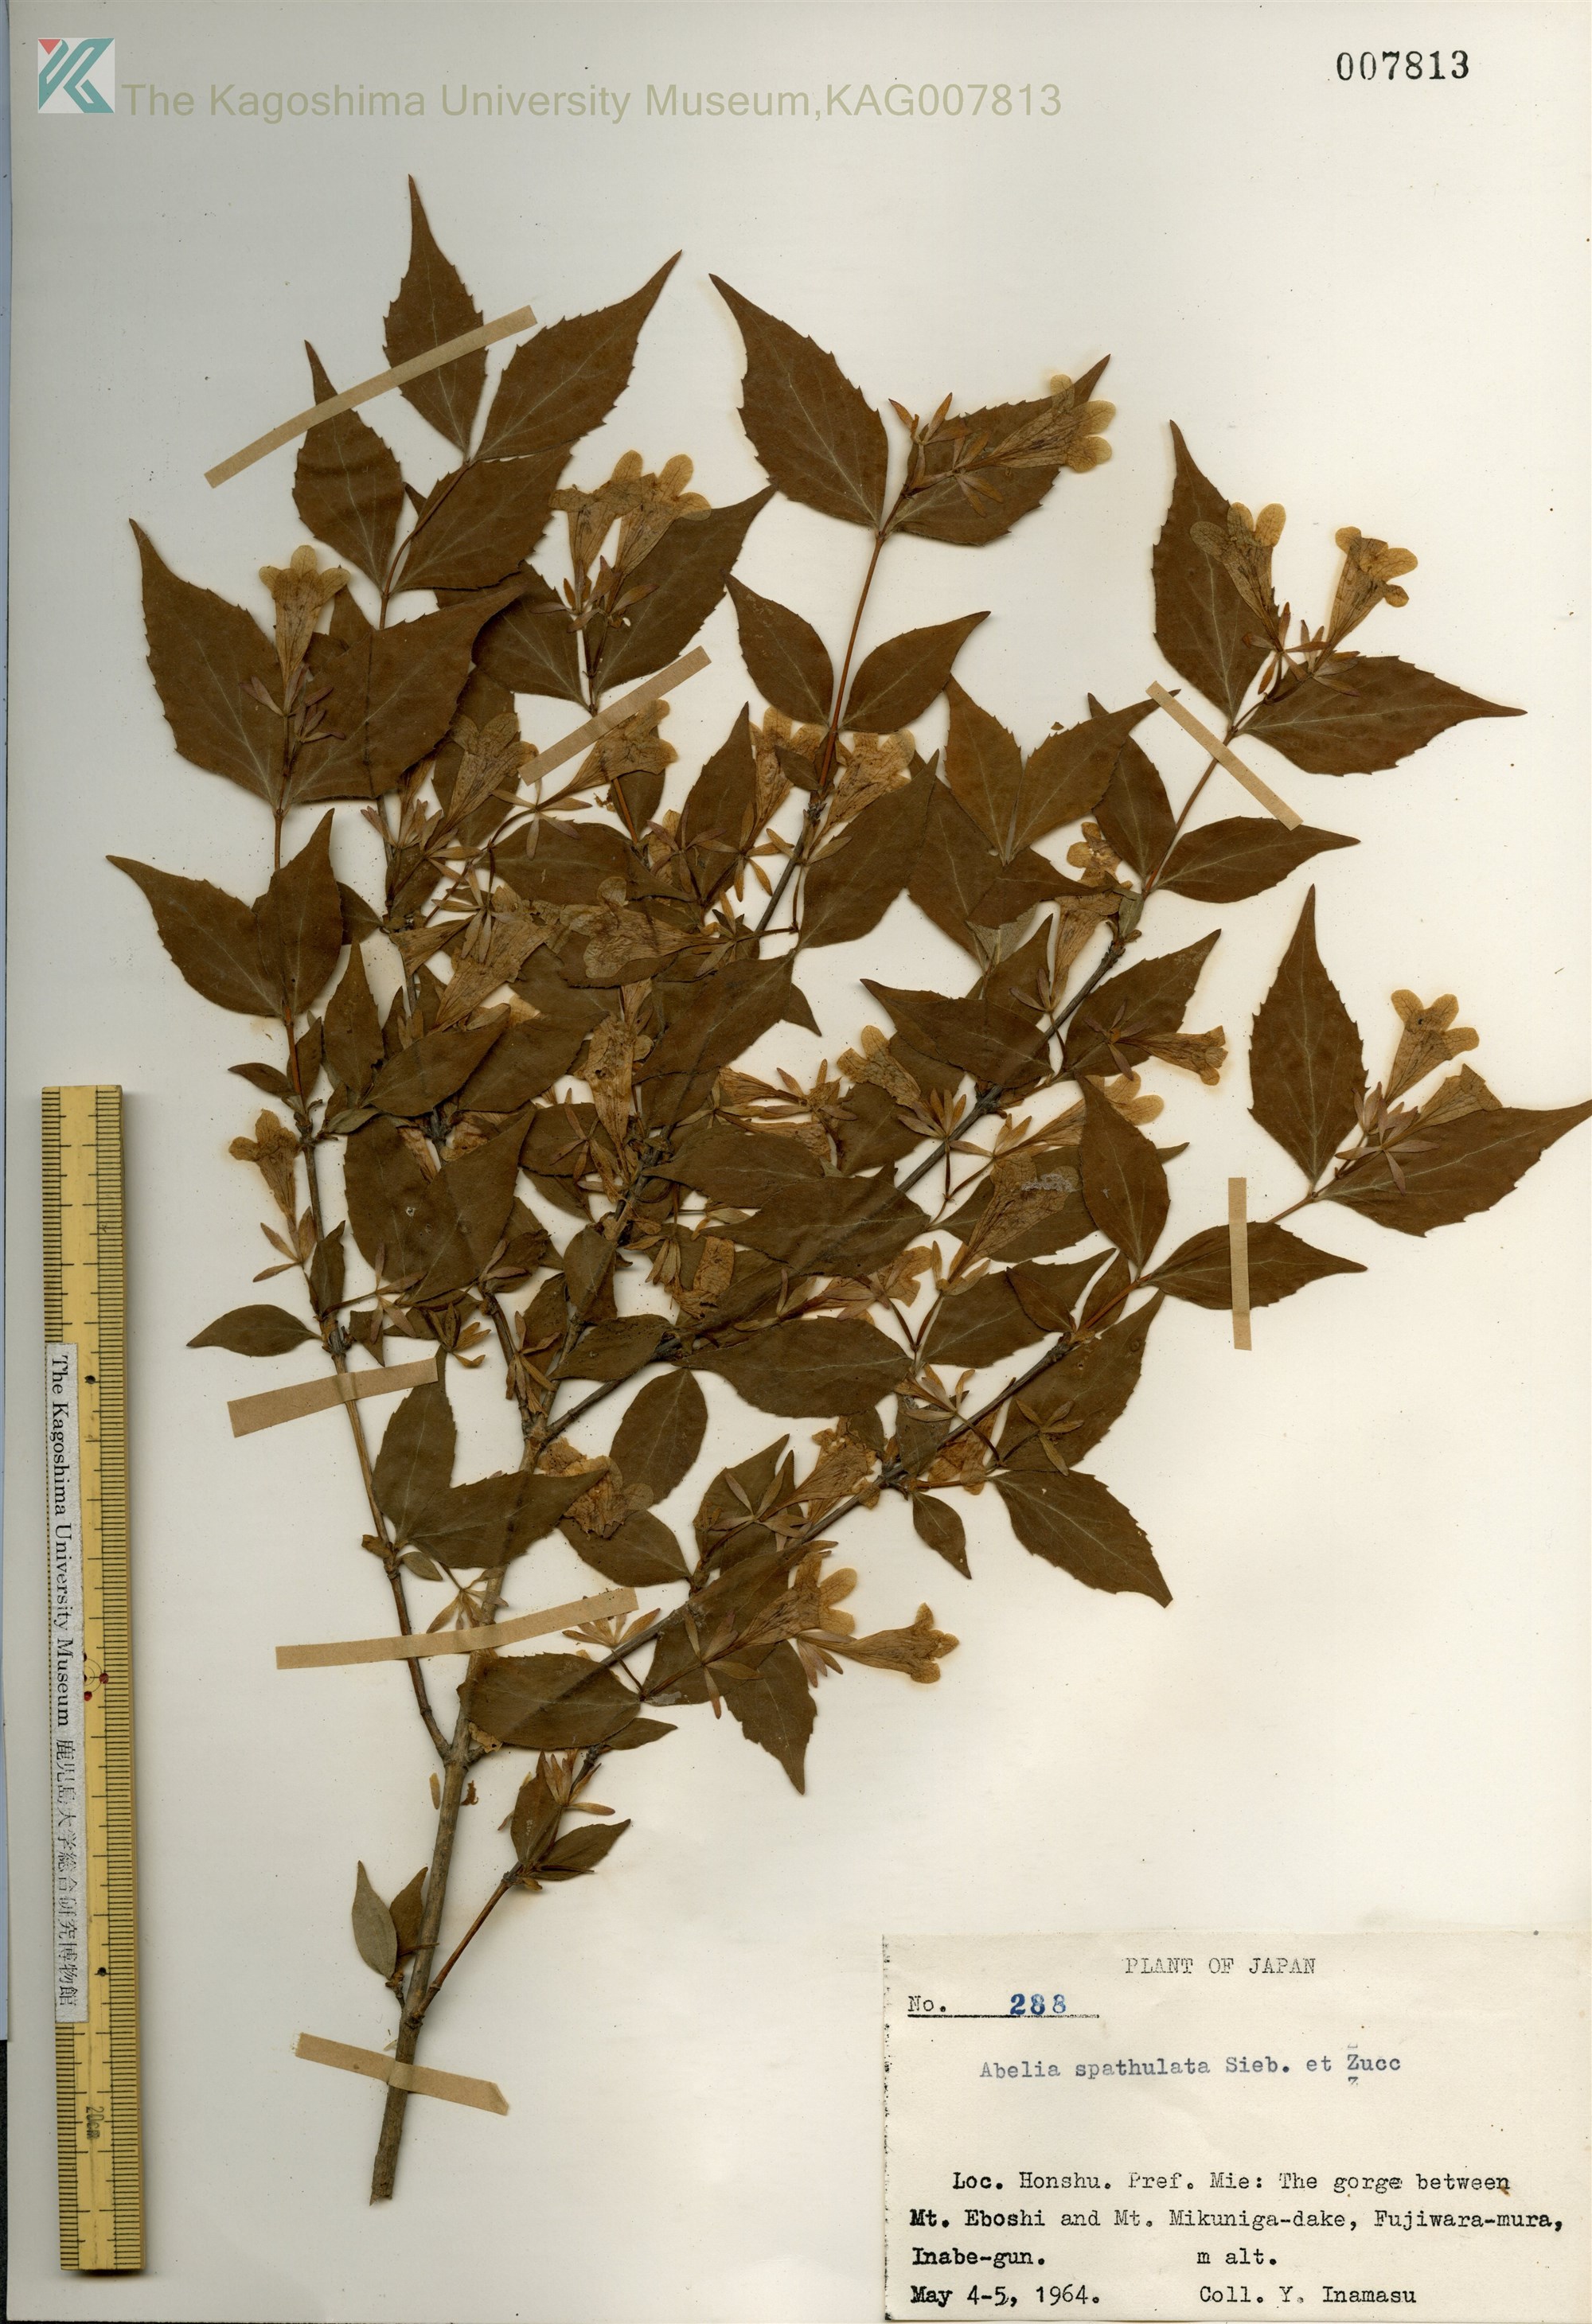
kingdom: Plantae
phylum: Tracheophyta
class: Magnoliopsida
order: Dipsacales
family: Caprifoliaceae
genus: Diabelia
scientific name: Diabelia spathulata
